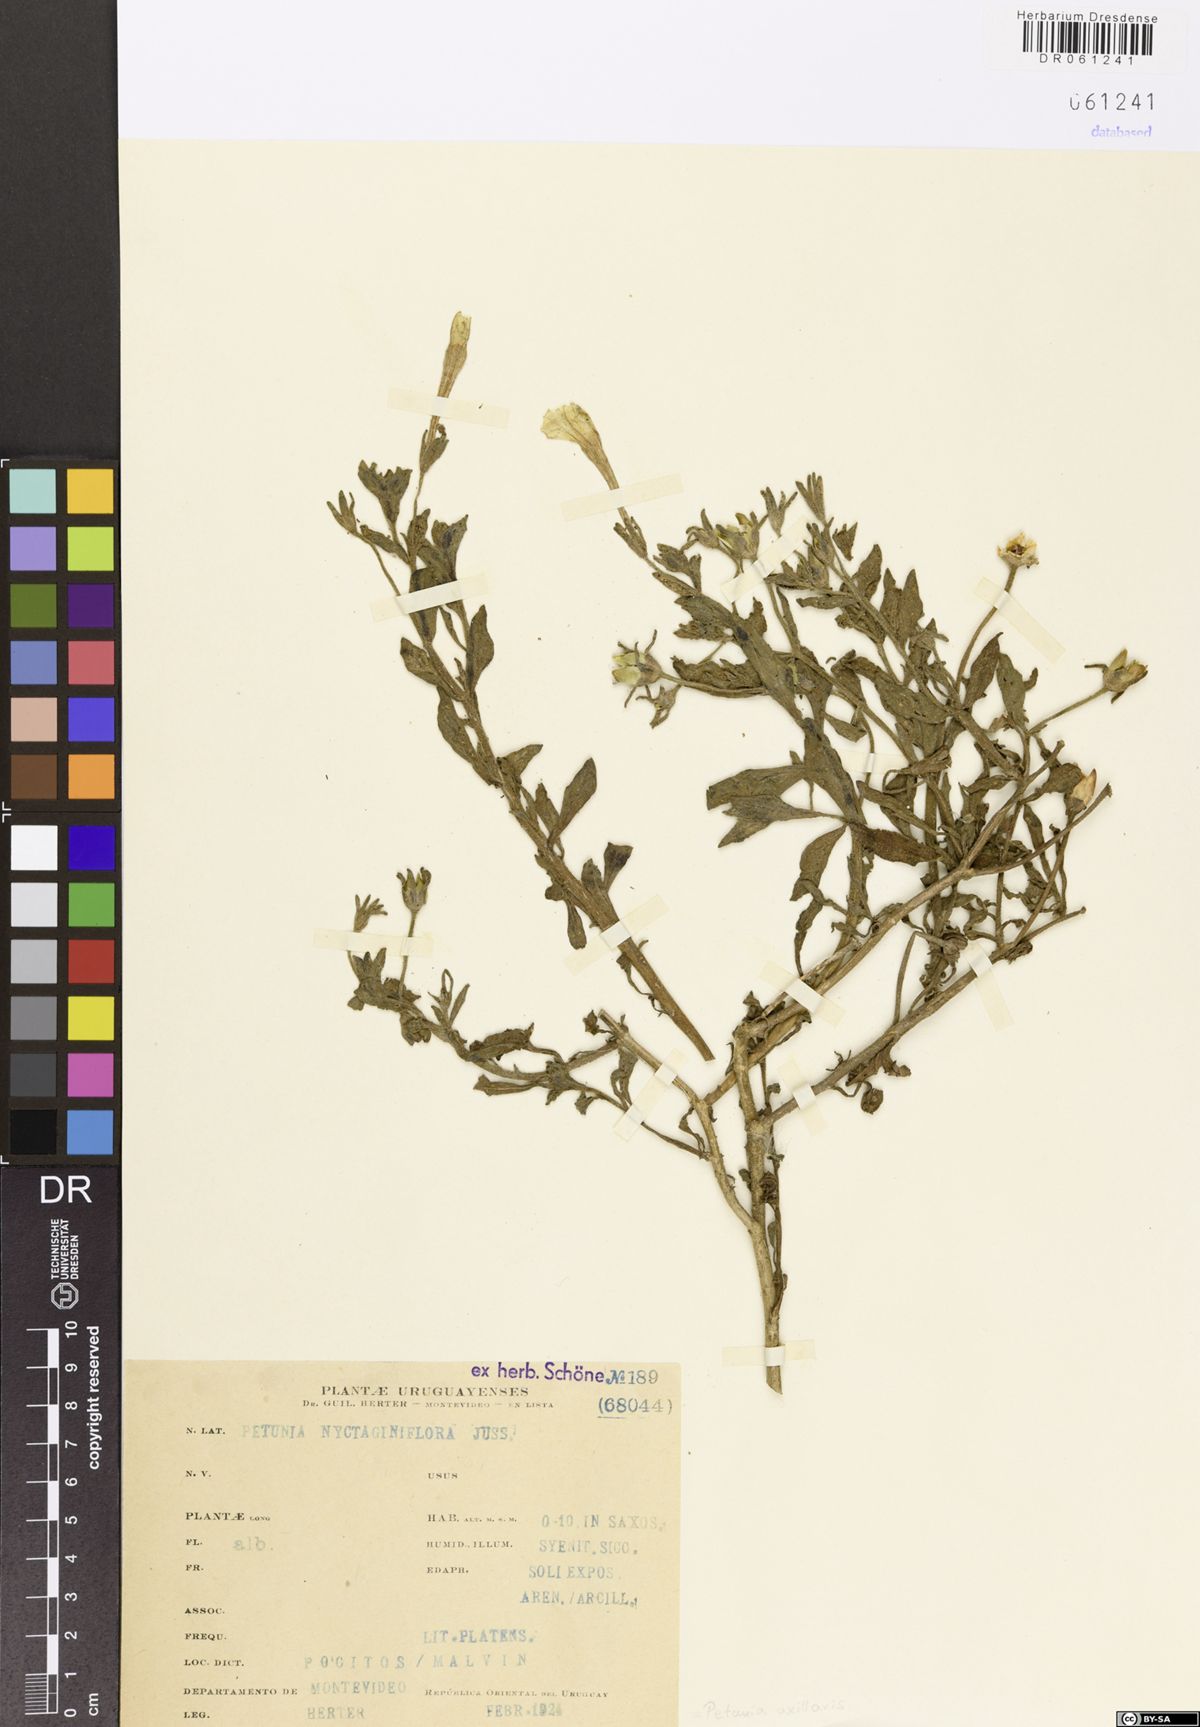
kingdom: Plantae
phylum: Tracheophyta
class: Magnoliopsida
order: Solanales
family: Solanaceae
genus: Petunia
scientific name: Petunia axillaris
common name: Large white petunia
